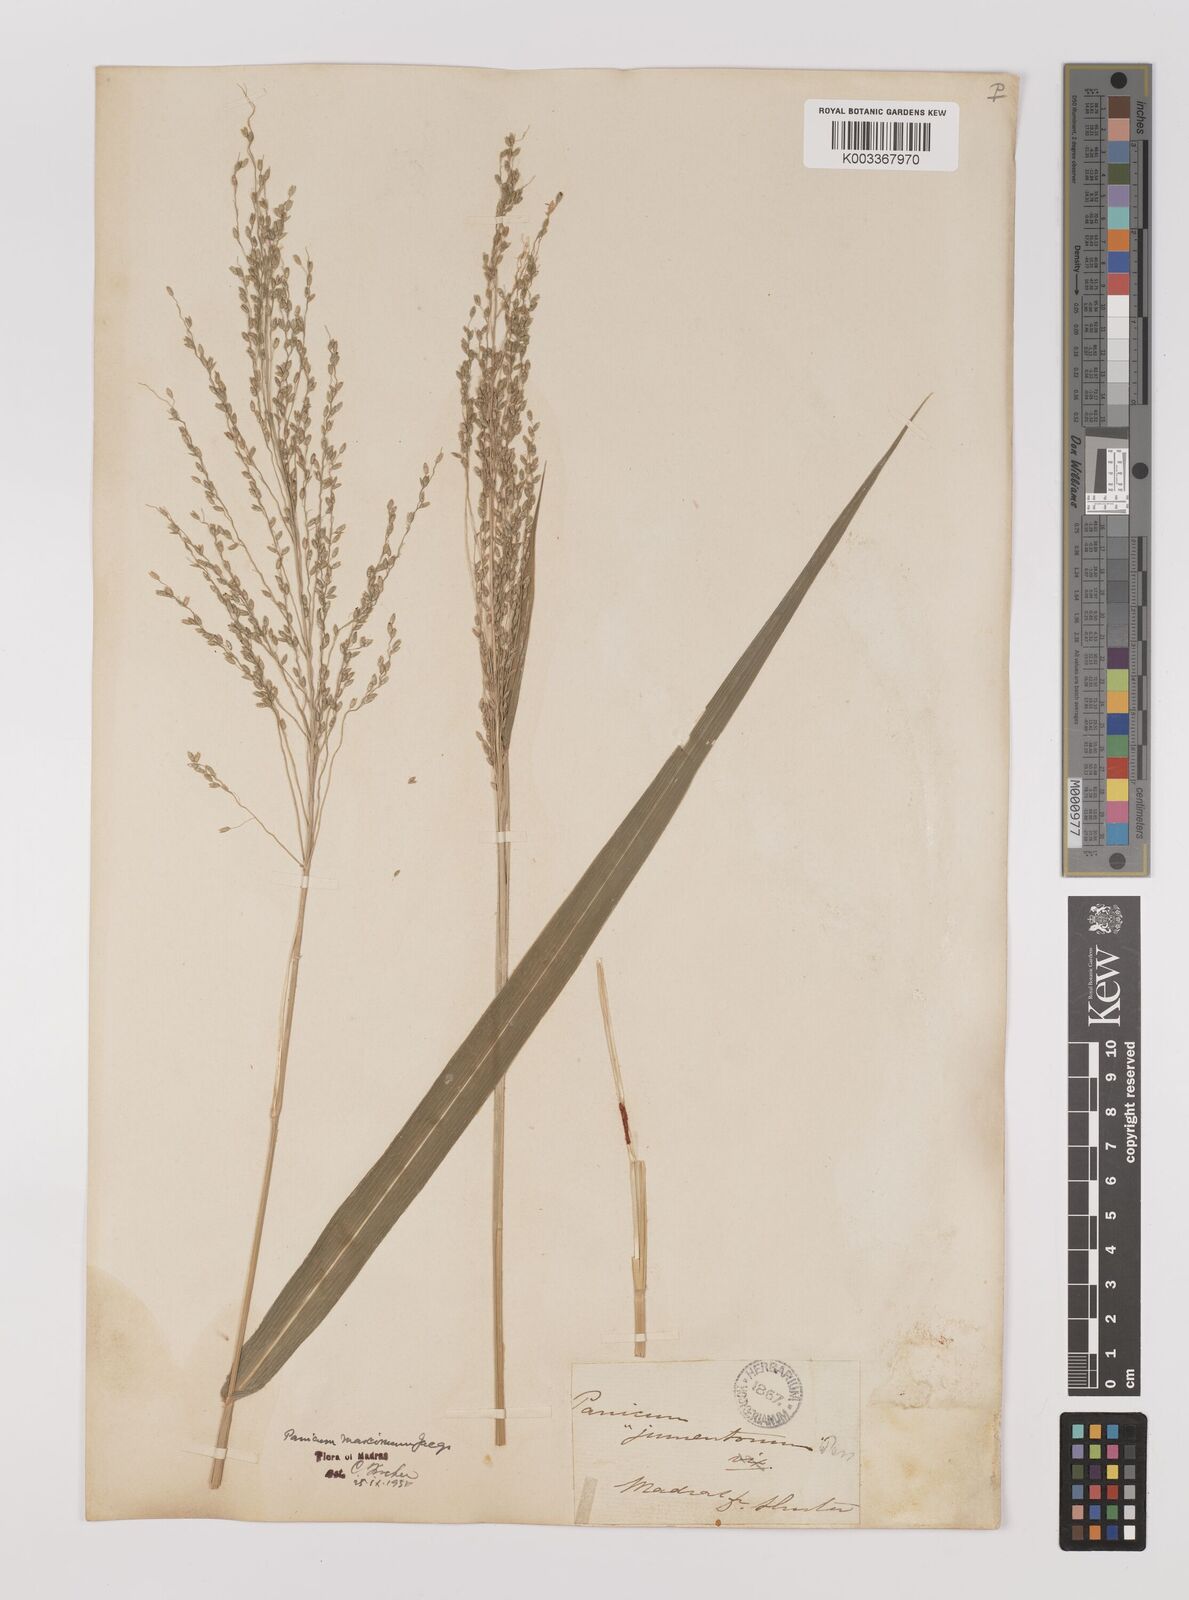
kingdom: Plantae
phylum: Tracheophyta
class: Liliopsida
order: Poales
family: Poaceae
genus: Megathyrsus
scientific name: Megathyrsus maximus
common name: Guineagrass
